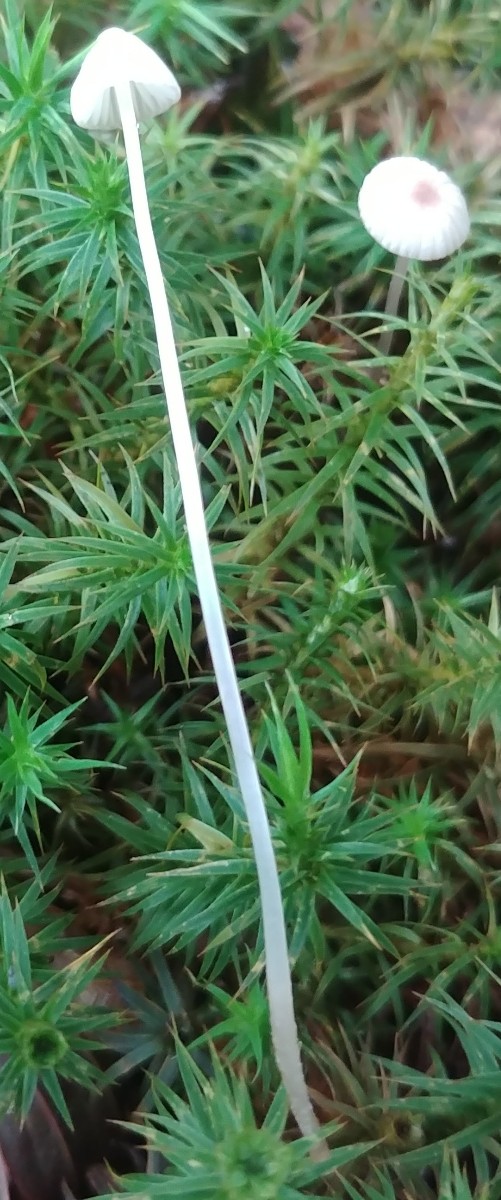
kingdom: Fungi
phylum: Basidiomycota
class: Agaricomycetes
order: Agaricales
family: Mycenaceae
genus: Mycena
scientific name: Mycena
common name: huesvamp
